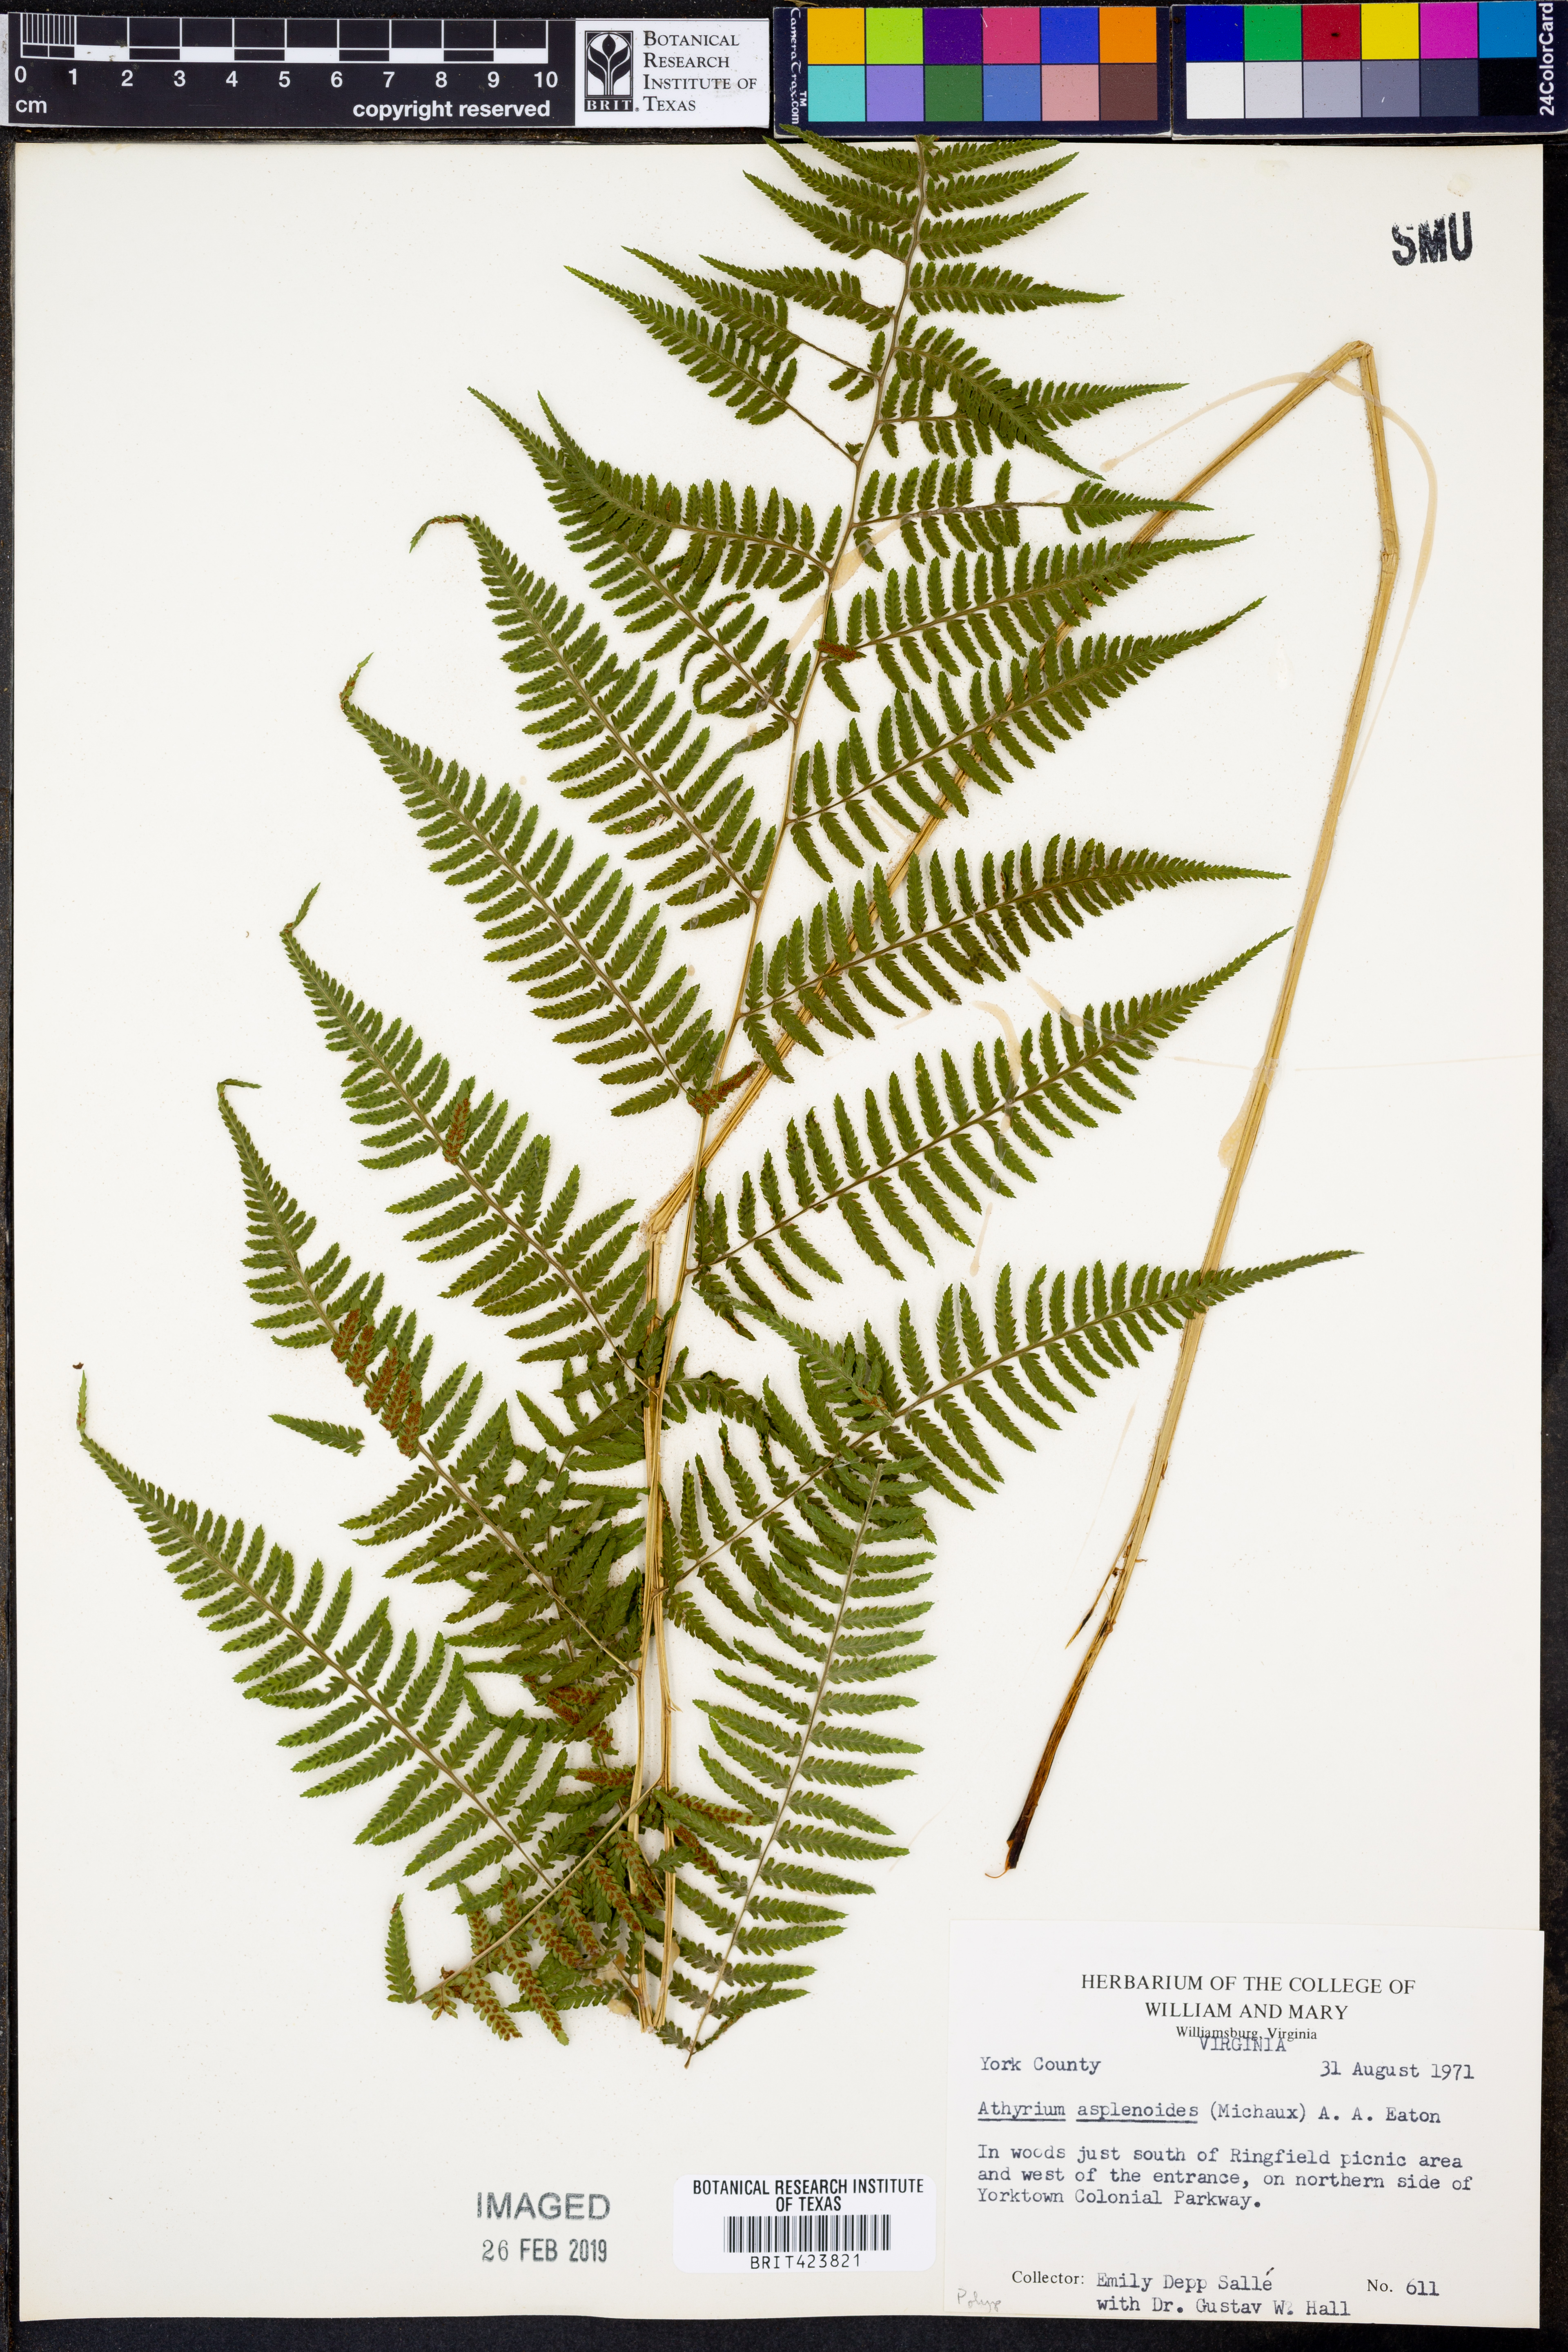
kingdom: Plantae
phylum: Tracheophyta
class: Polypodiopsida
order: Polypodiales
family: Athyriaceae
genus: Athyrium
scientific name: Athyrium asplenioides
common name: Southern lady fern
